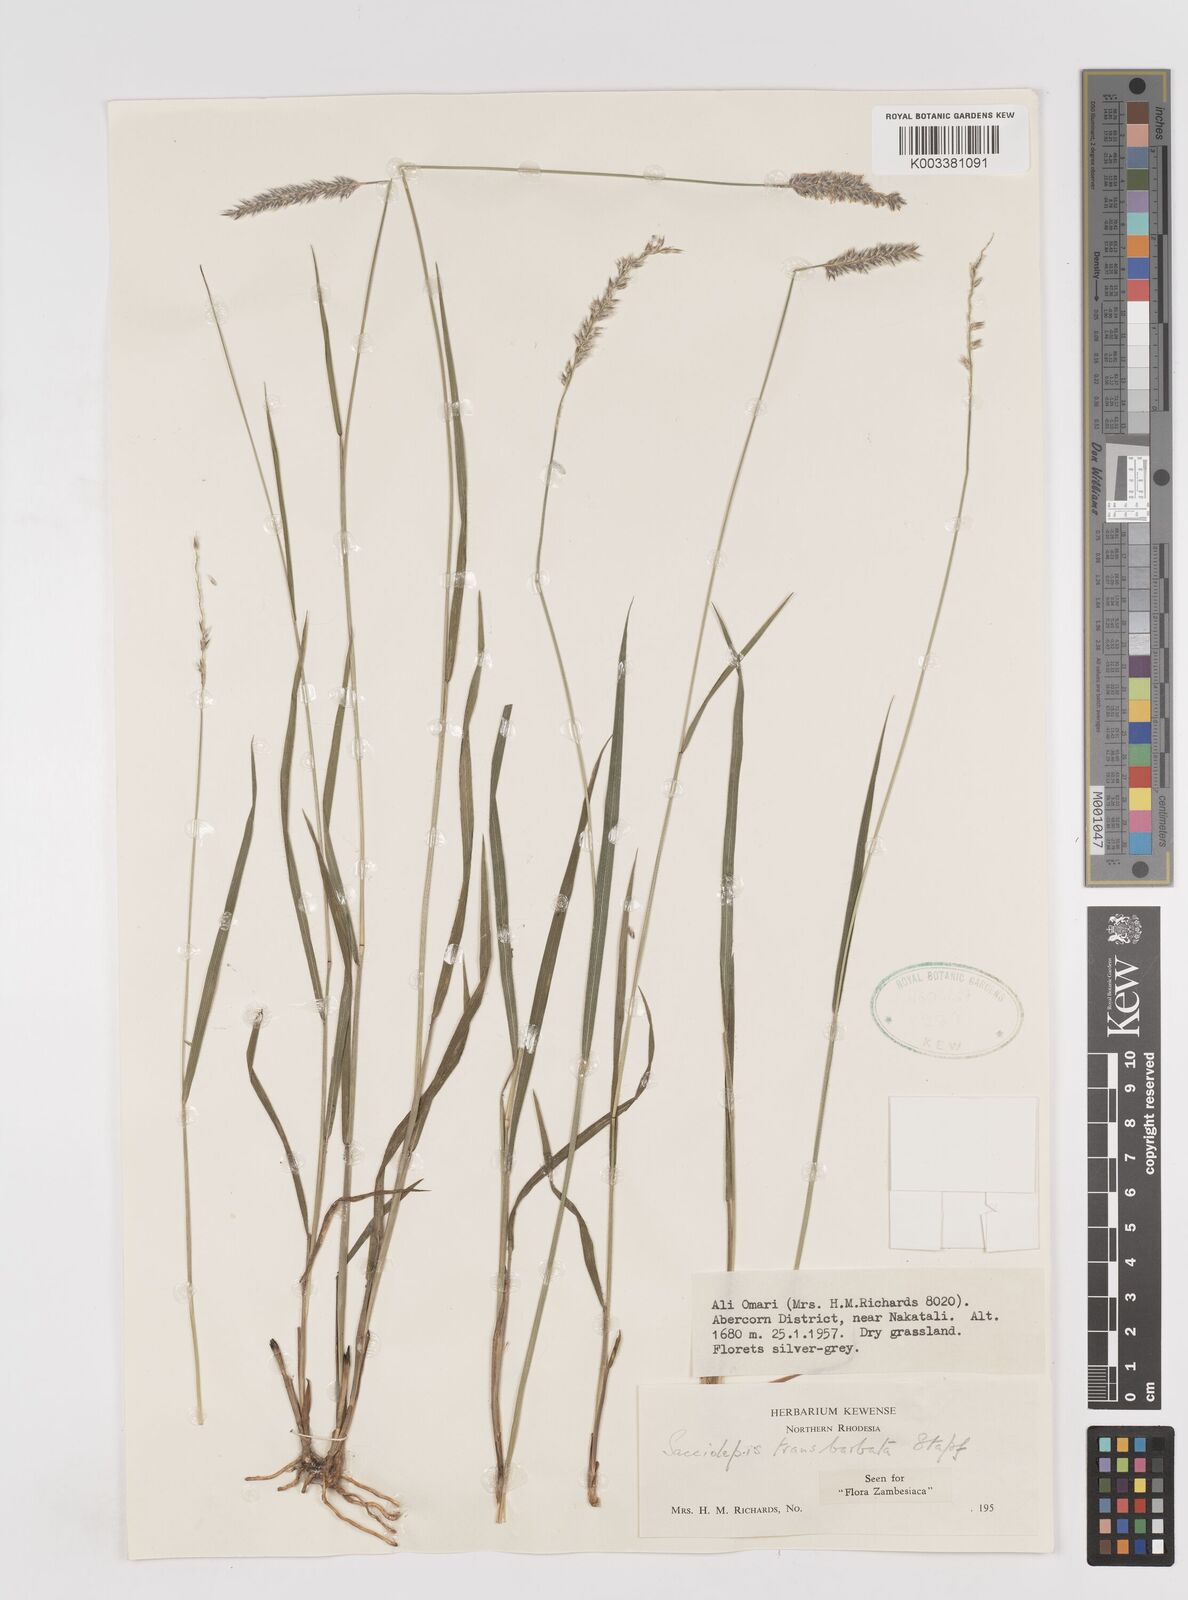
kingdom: Plantae
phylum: Tracheophyta
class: Liliopsida
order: Poales
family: Poaceae
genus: Sacciolepis
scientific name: Sacciolepis transbarbata
